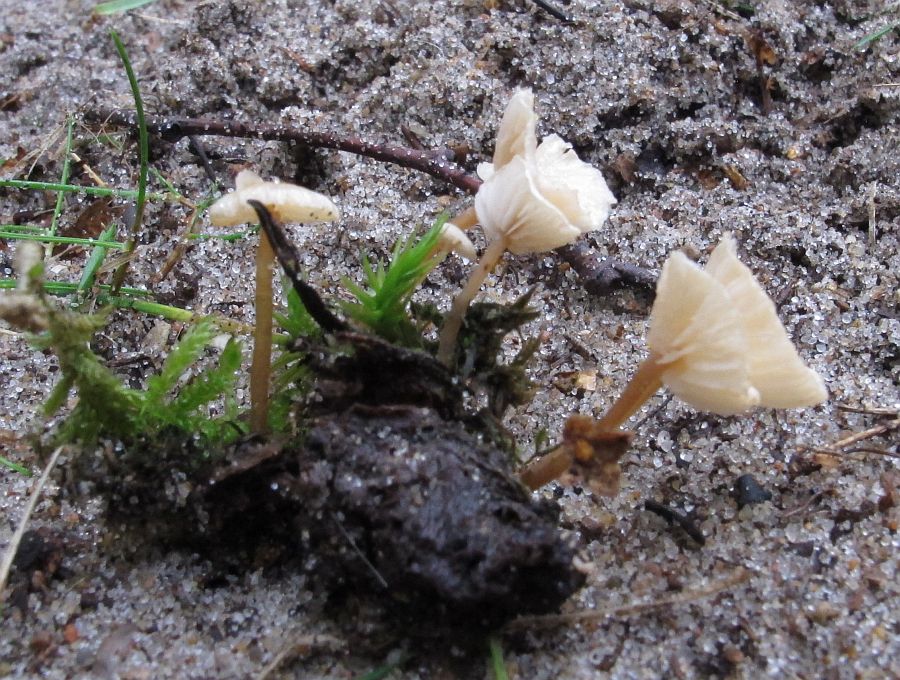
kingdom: Fungi
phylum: Basidiomycota
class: Agaricomycetes
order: Agaricales
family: Tricholomataceae
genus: Collybia
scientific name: Collybia cirrhata
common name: silke-lighat
